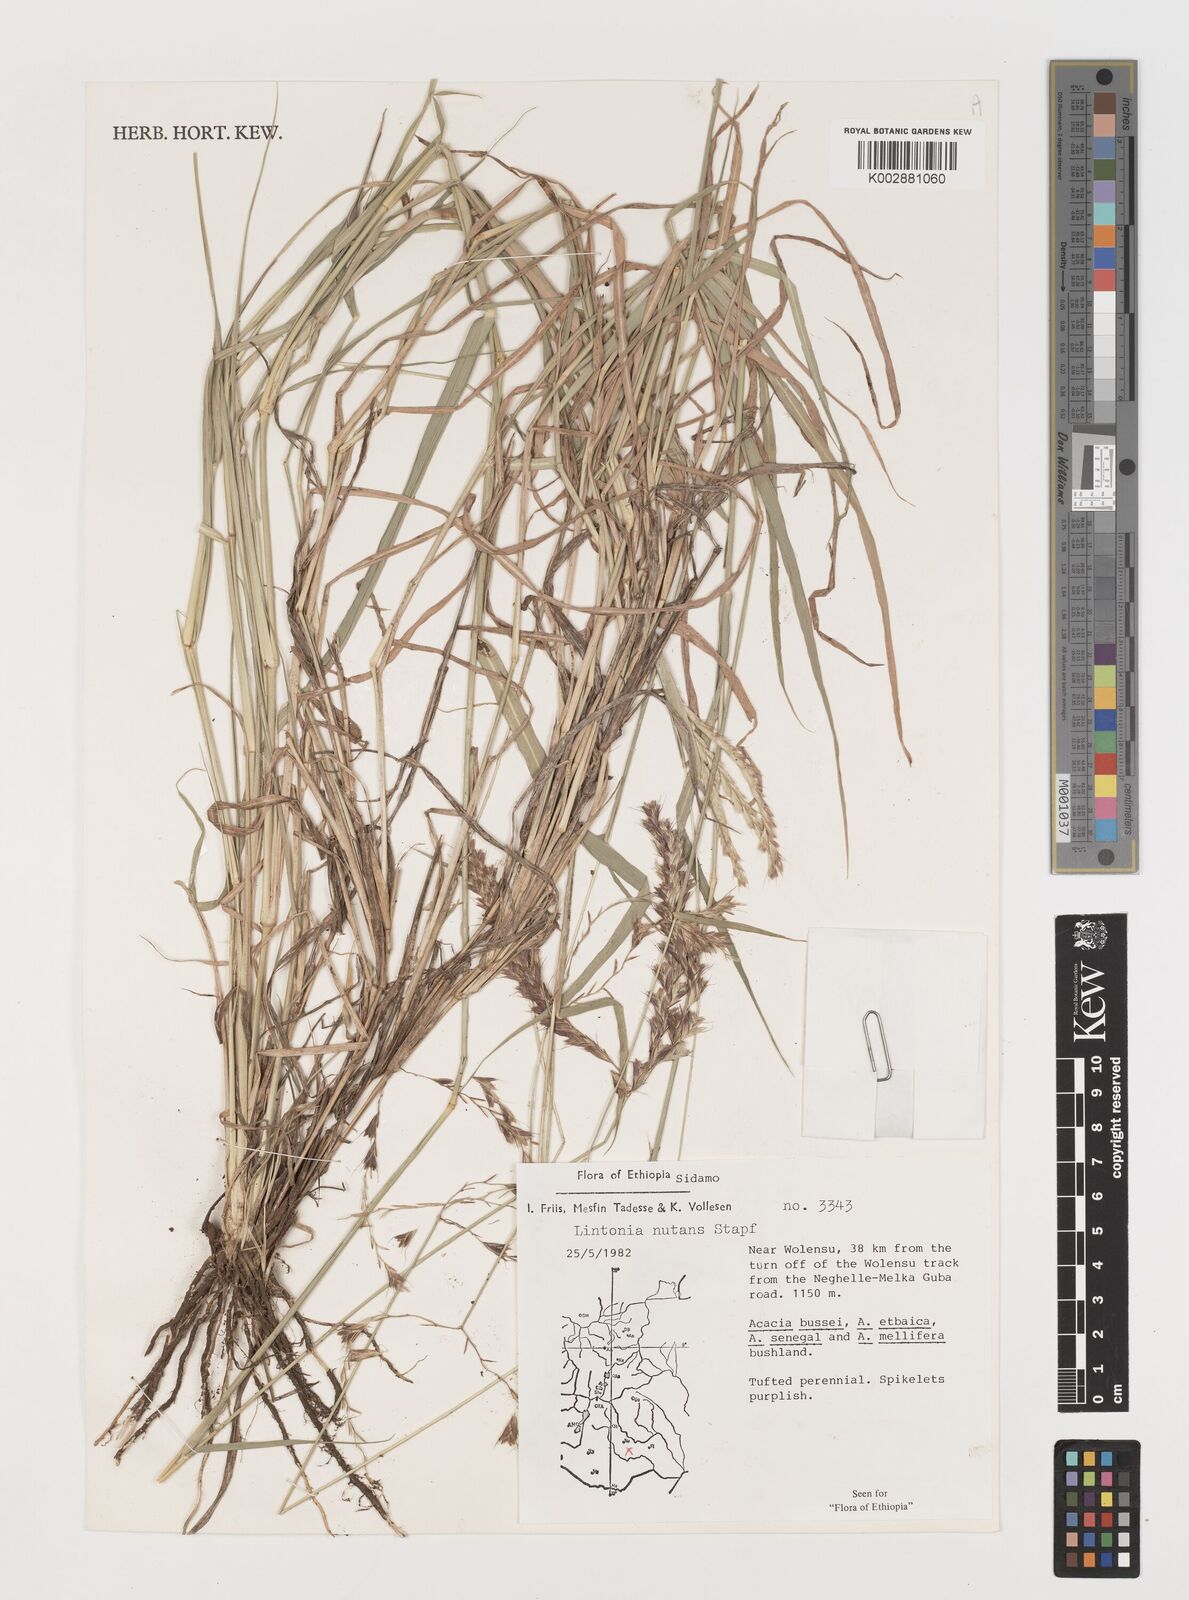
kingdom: Plantae
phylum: Tracheophyta
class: Liliopsida
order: Poales
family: Poaceae
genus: Chloris
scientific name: Chloris nutans
